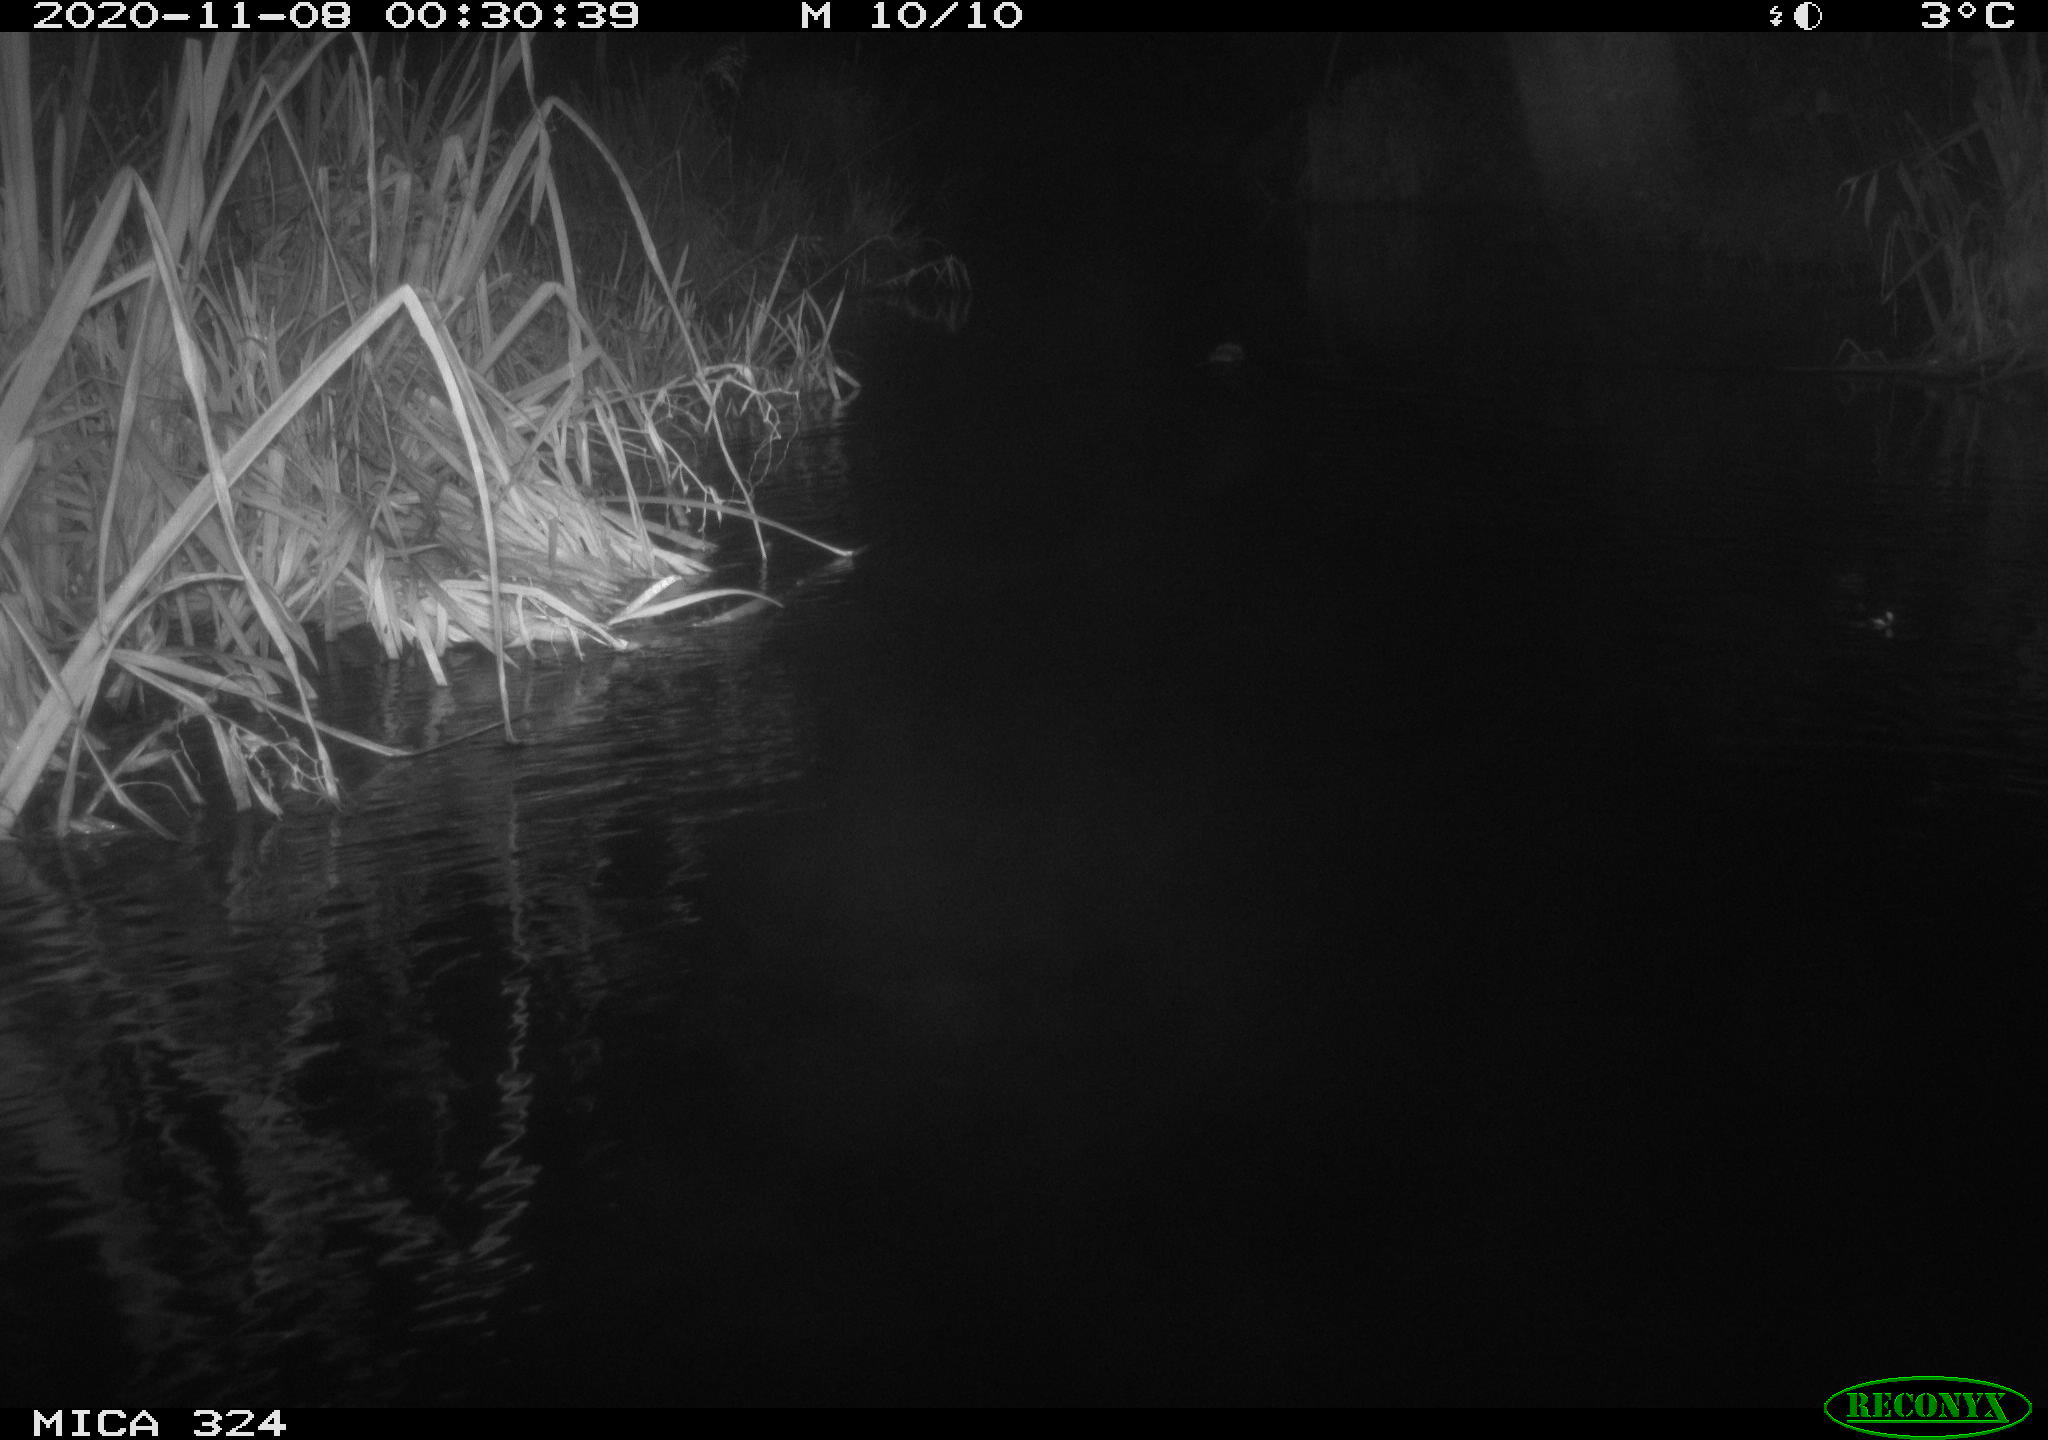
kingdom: Animalia
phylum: Chordata
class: Mammalia
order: Rodentia
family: Cricetidae
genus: Ondatra
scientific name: Ondatra zibethicus
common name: Muskrat
